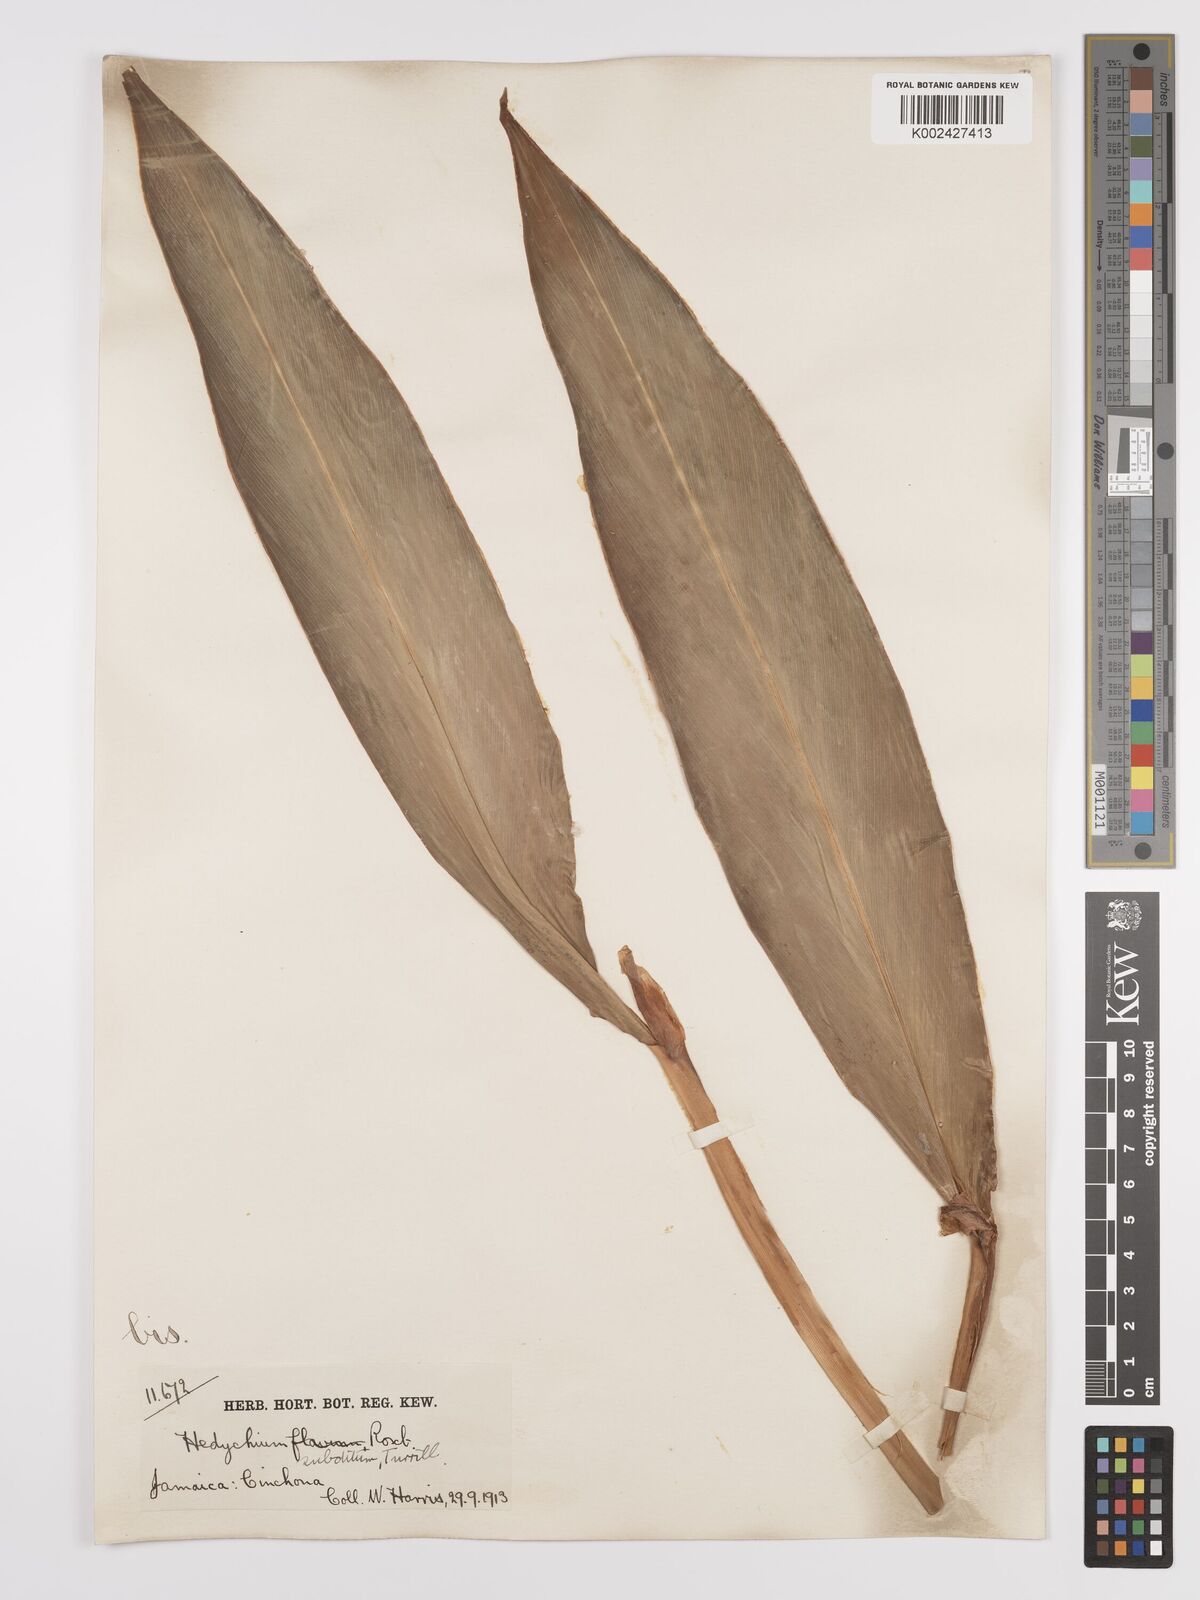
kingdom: Plantae
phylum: Tracheophyta
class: Liliopsida
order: Zingiberales
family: Zingiberaceae
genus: Hedychium
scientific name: Hedychium flavescens
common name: Yellow ginger
